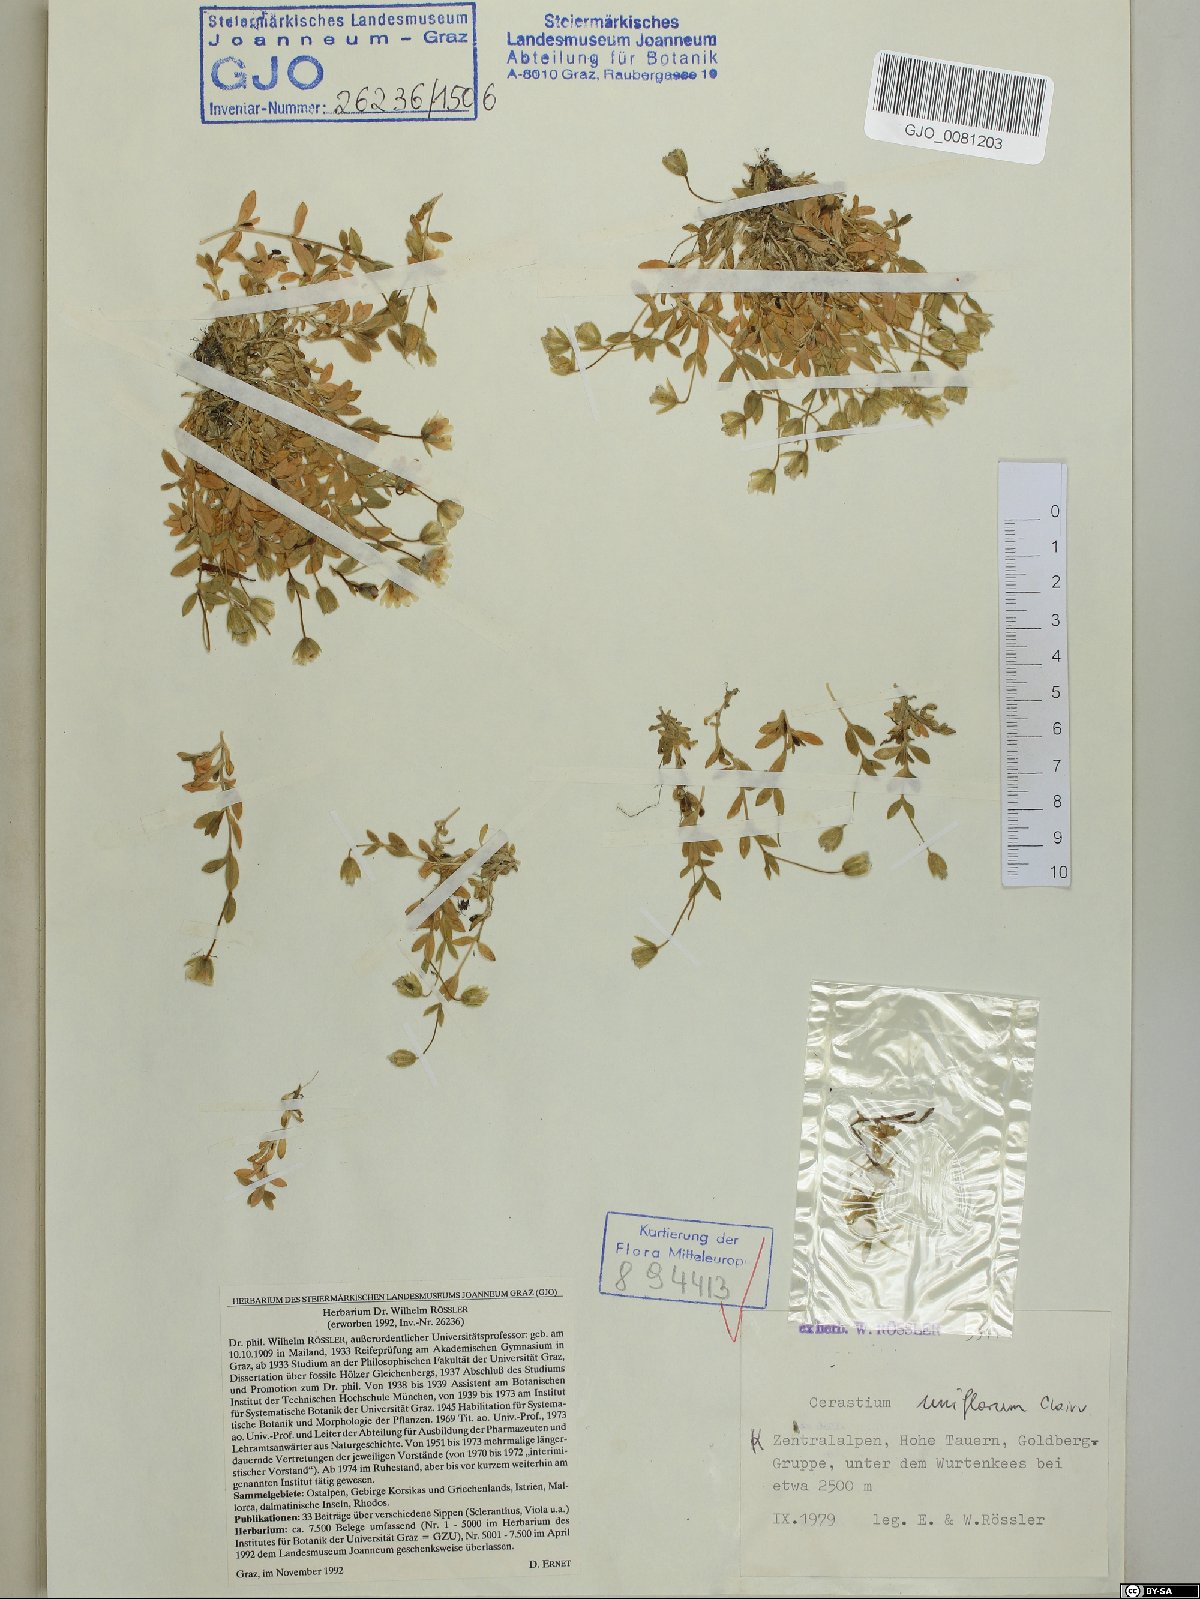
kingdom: Plantae
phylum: Tracheophyta
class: Magnoliopsida
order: Caryophyllales
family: Caryophyllaceae
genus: Cerastium
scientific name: Cerastium uniflorum
